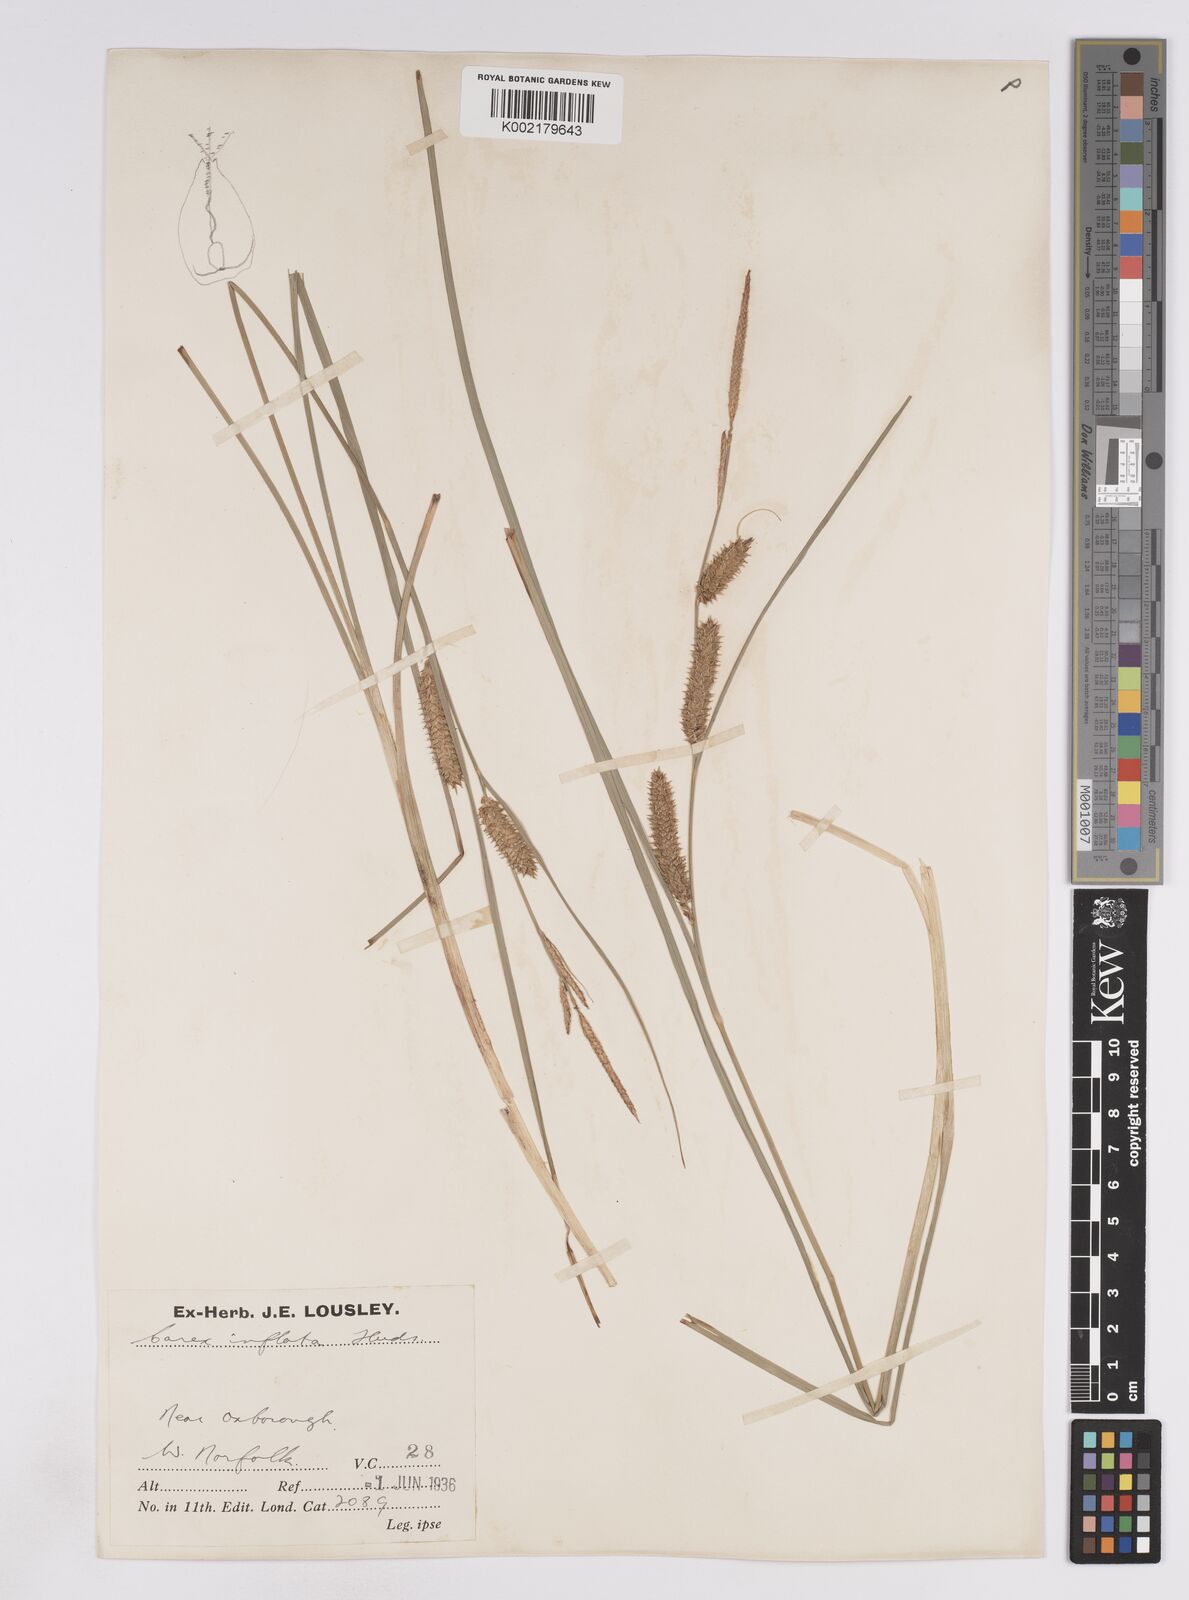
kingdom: Plantae
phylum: Tracheophyta
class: Liliopsida
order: Poales
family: Cyperaceae
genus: Carex
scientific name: Carex rostrata
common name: Bottle sedge
